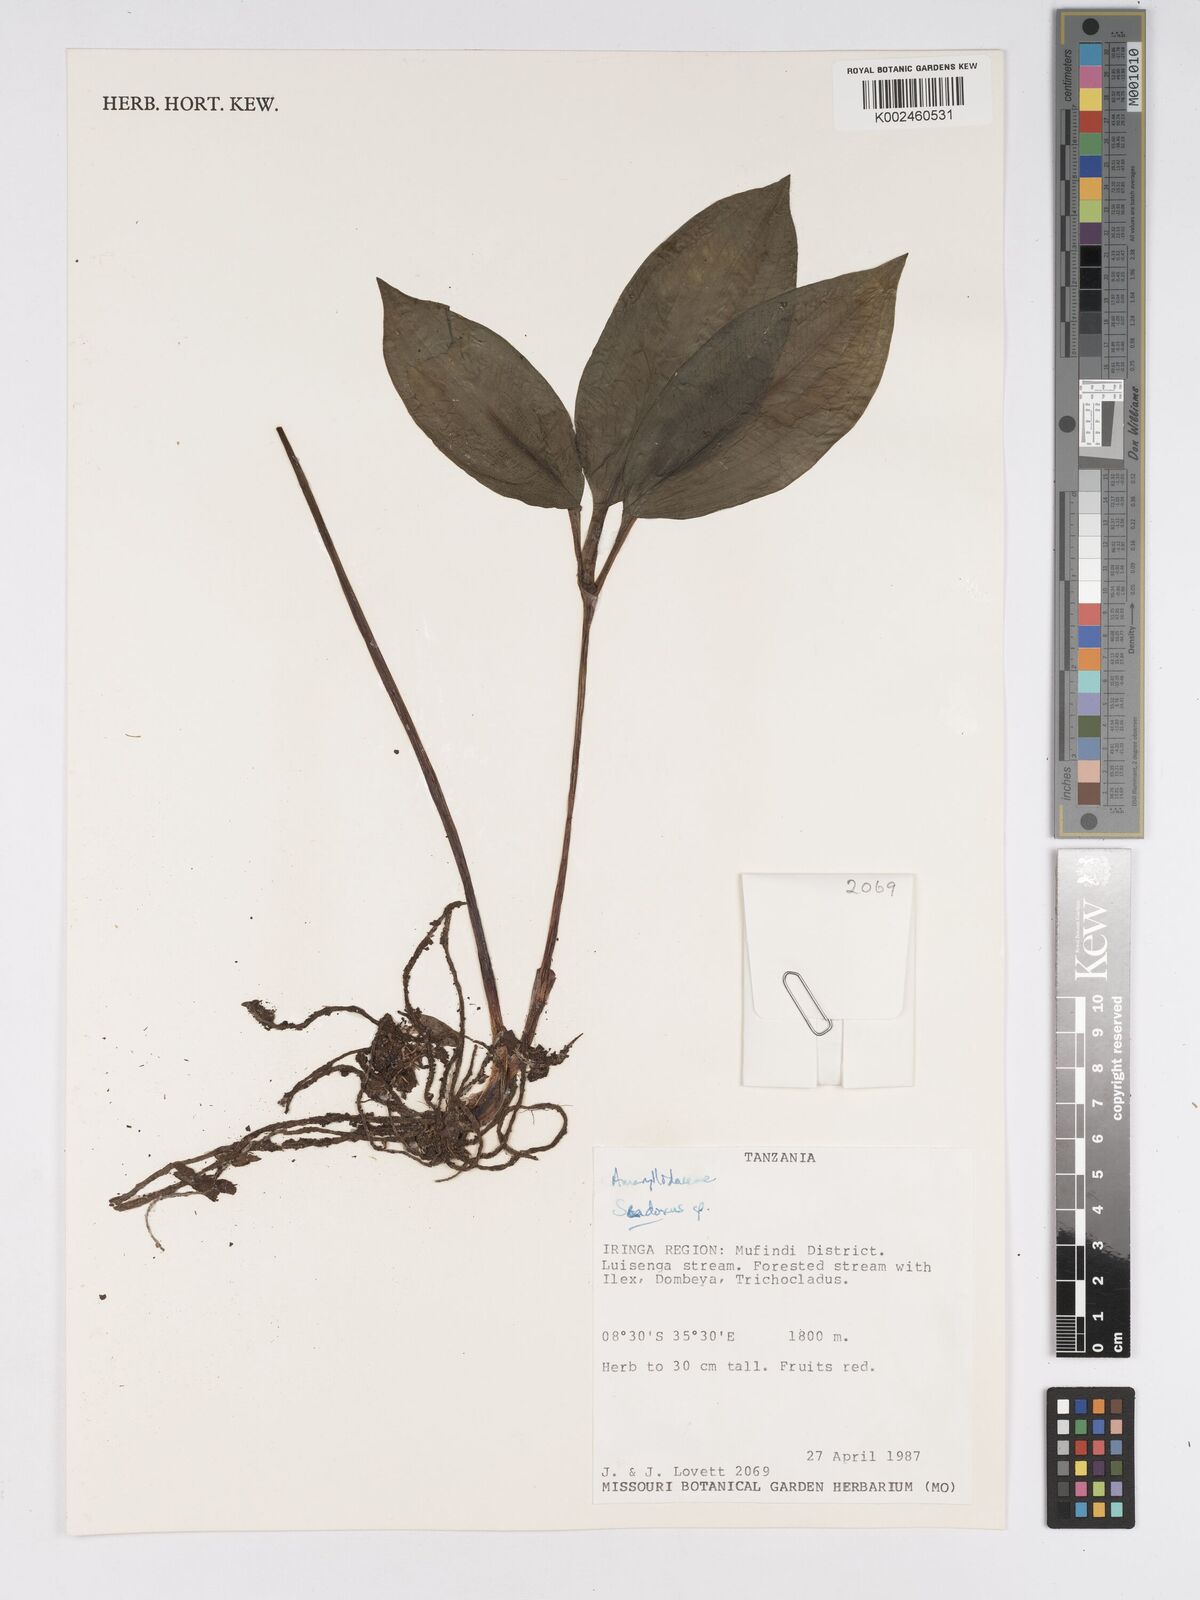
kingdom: Plantae
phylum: Tracheophyta
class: Liliopsida
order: Asparagales
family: Amaryllidaceae
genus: Scadoxus
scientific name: Scadoxus
